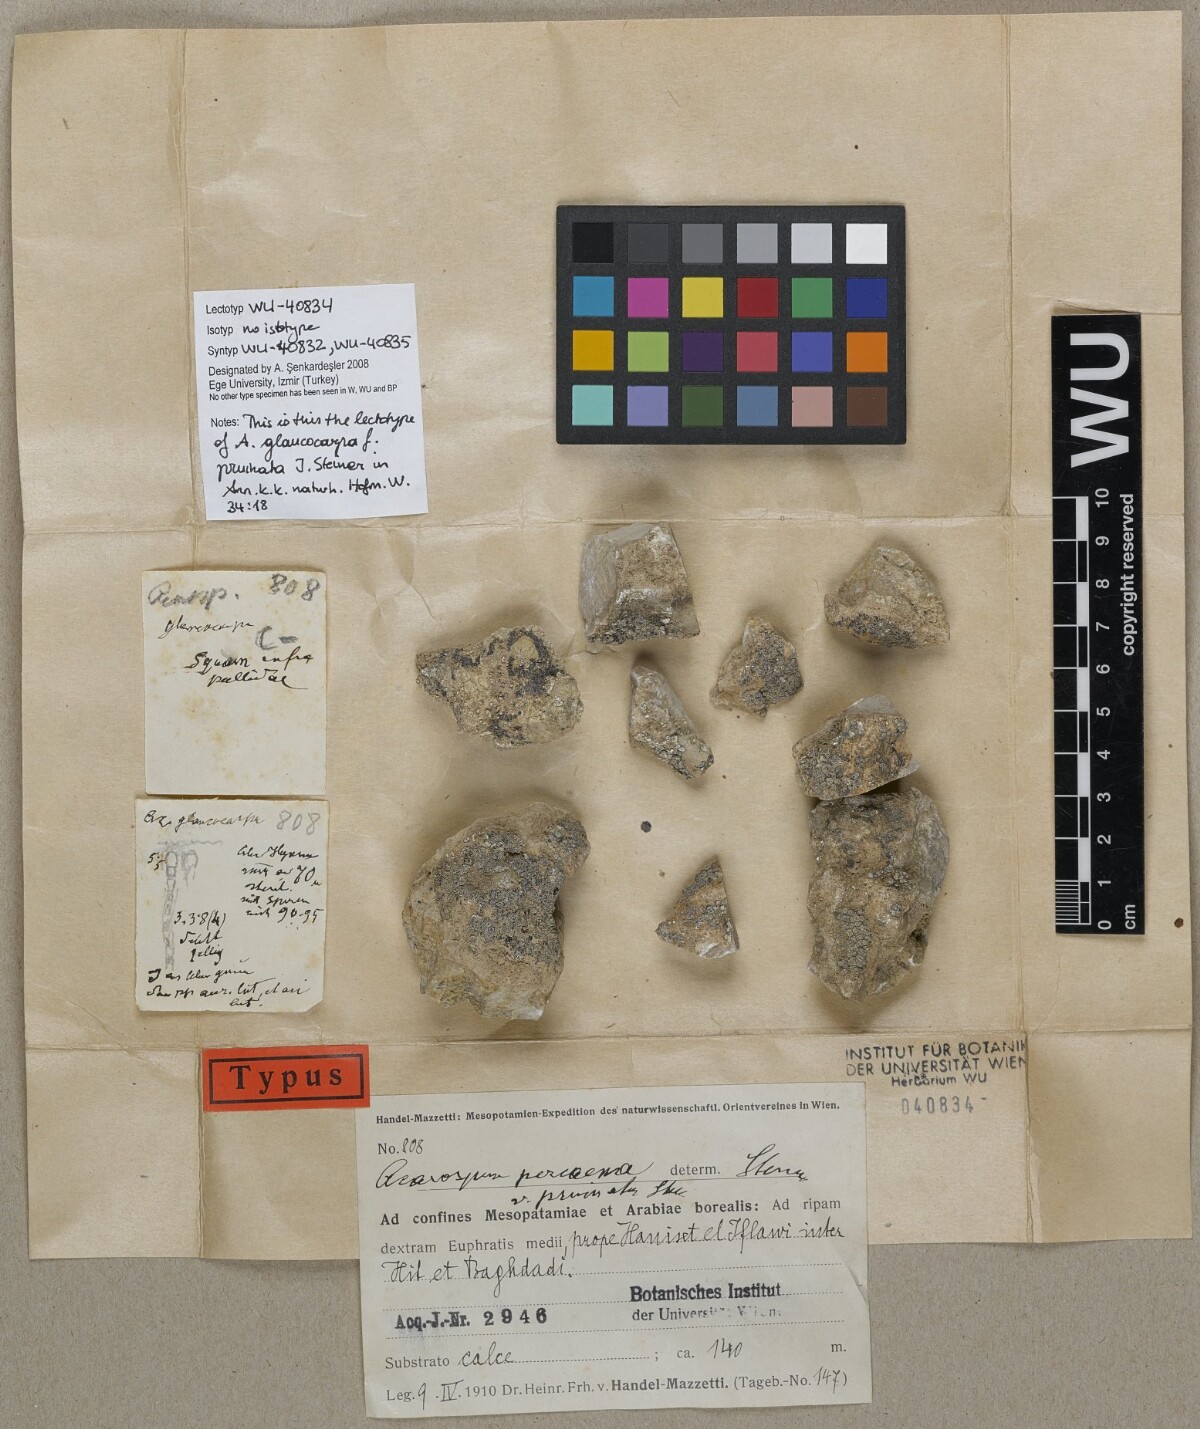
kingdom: Fungi
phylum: Ascomycota
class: Lecanoromycetes
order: Acarosporales
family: Acarosporaceae
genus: Acarospora
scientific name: Acarospora cervina
